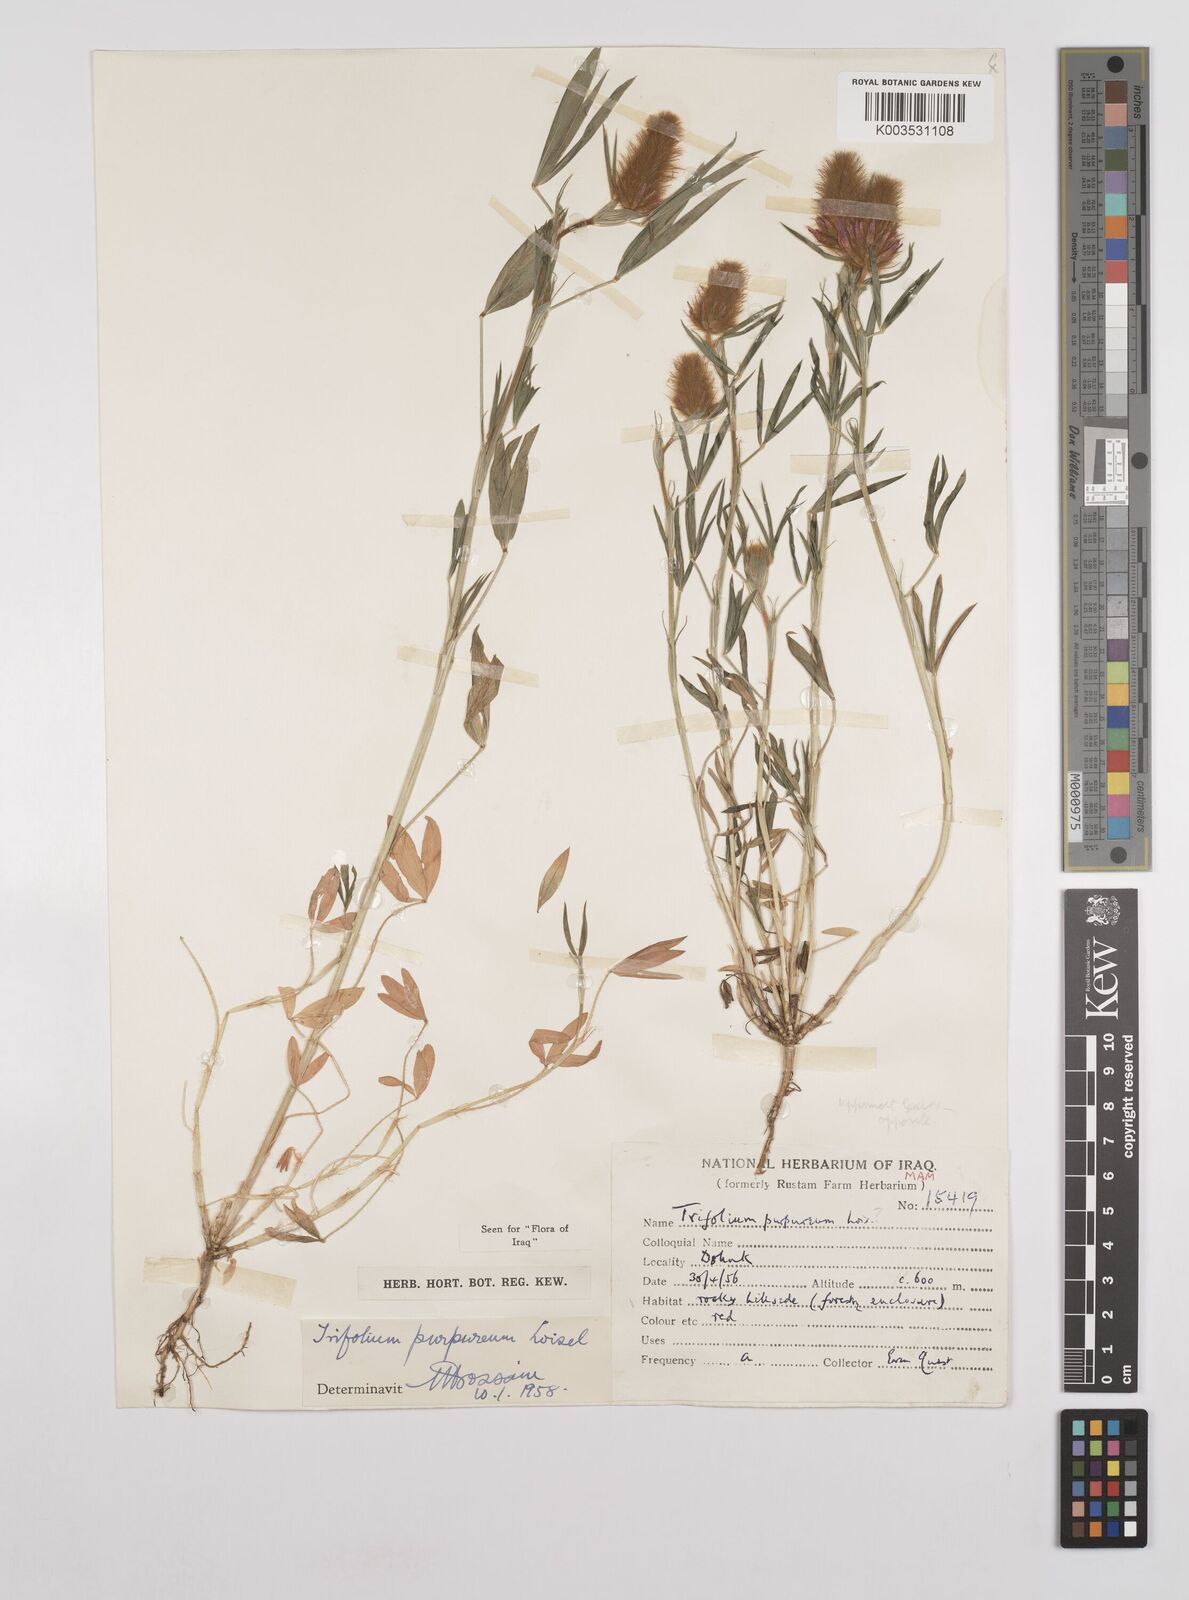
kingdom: Plantae
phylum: Tracheophyta
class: Magnoliopsida
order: Fabales
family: Fabaceae
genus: Trifolium
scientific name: Trifolium purpureum
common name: Purple clover
